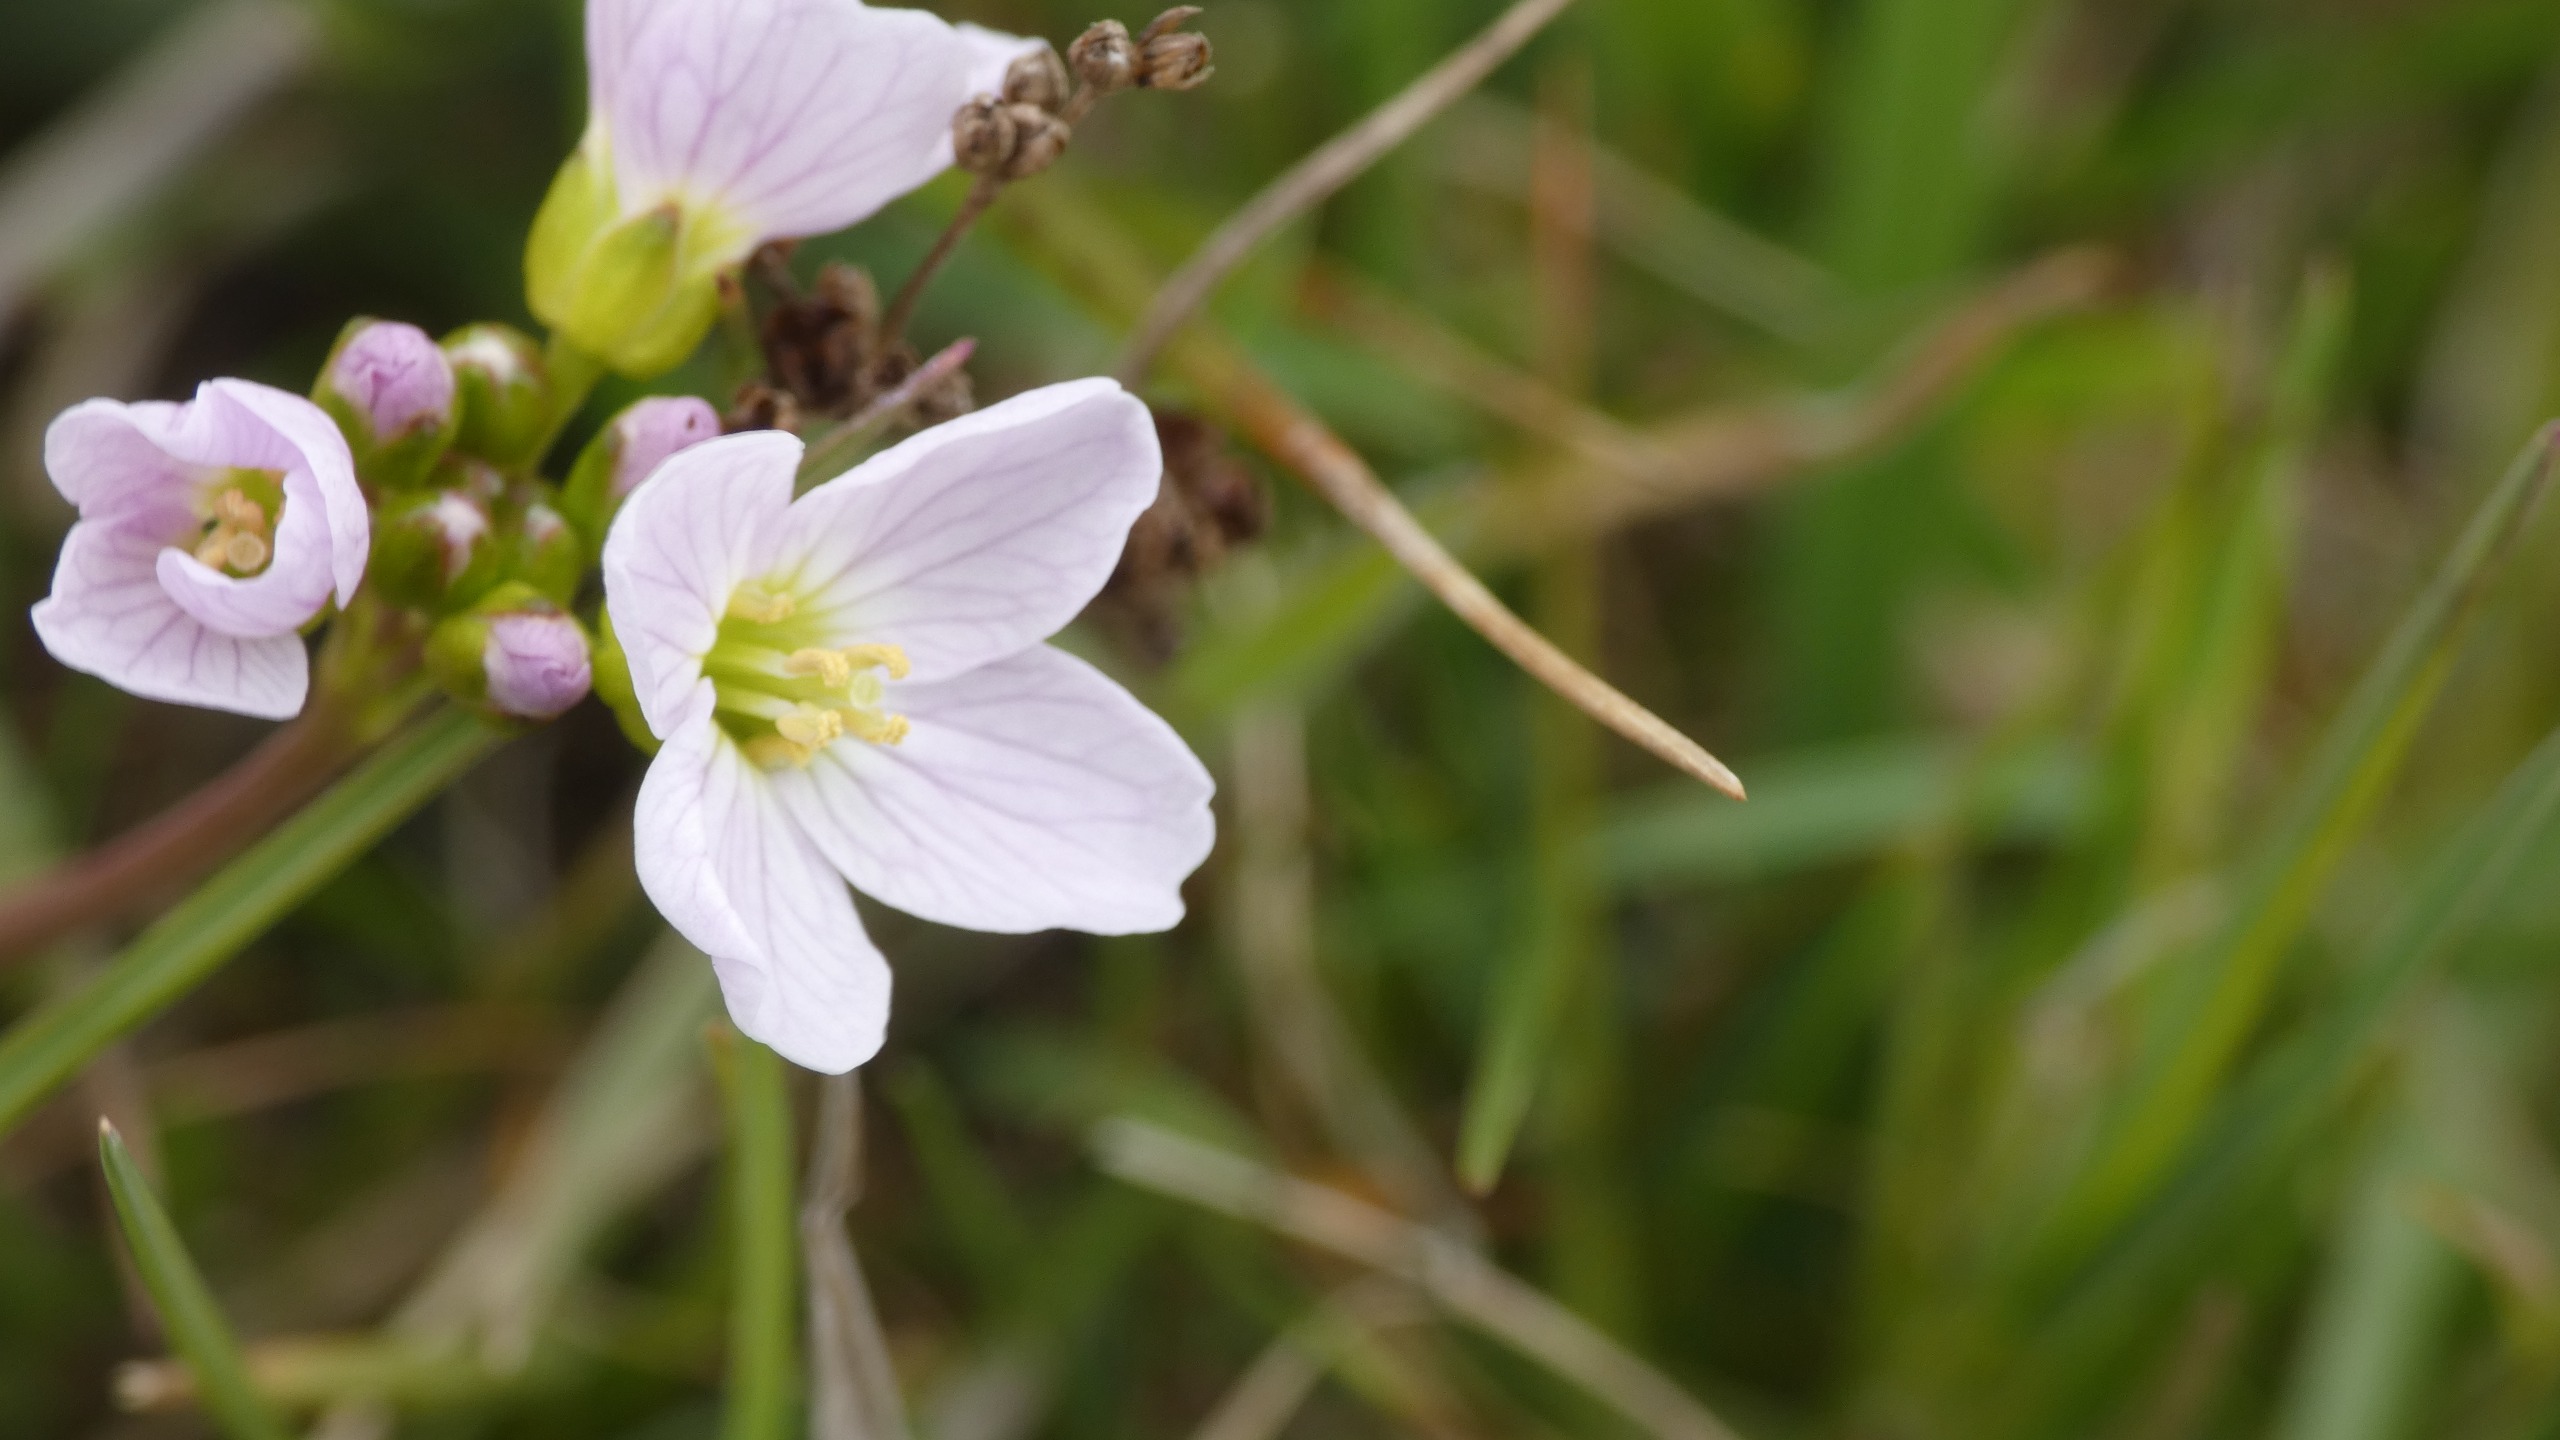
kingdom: Plantae
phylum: Tracheophyta
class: Magnoliopsida
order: Brassicales
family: Brassicaceae
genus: Cardamine
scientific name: Cardamine pratensis
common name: Engkarse
